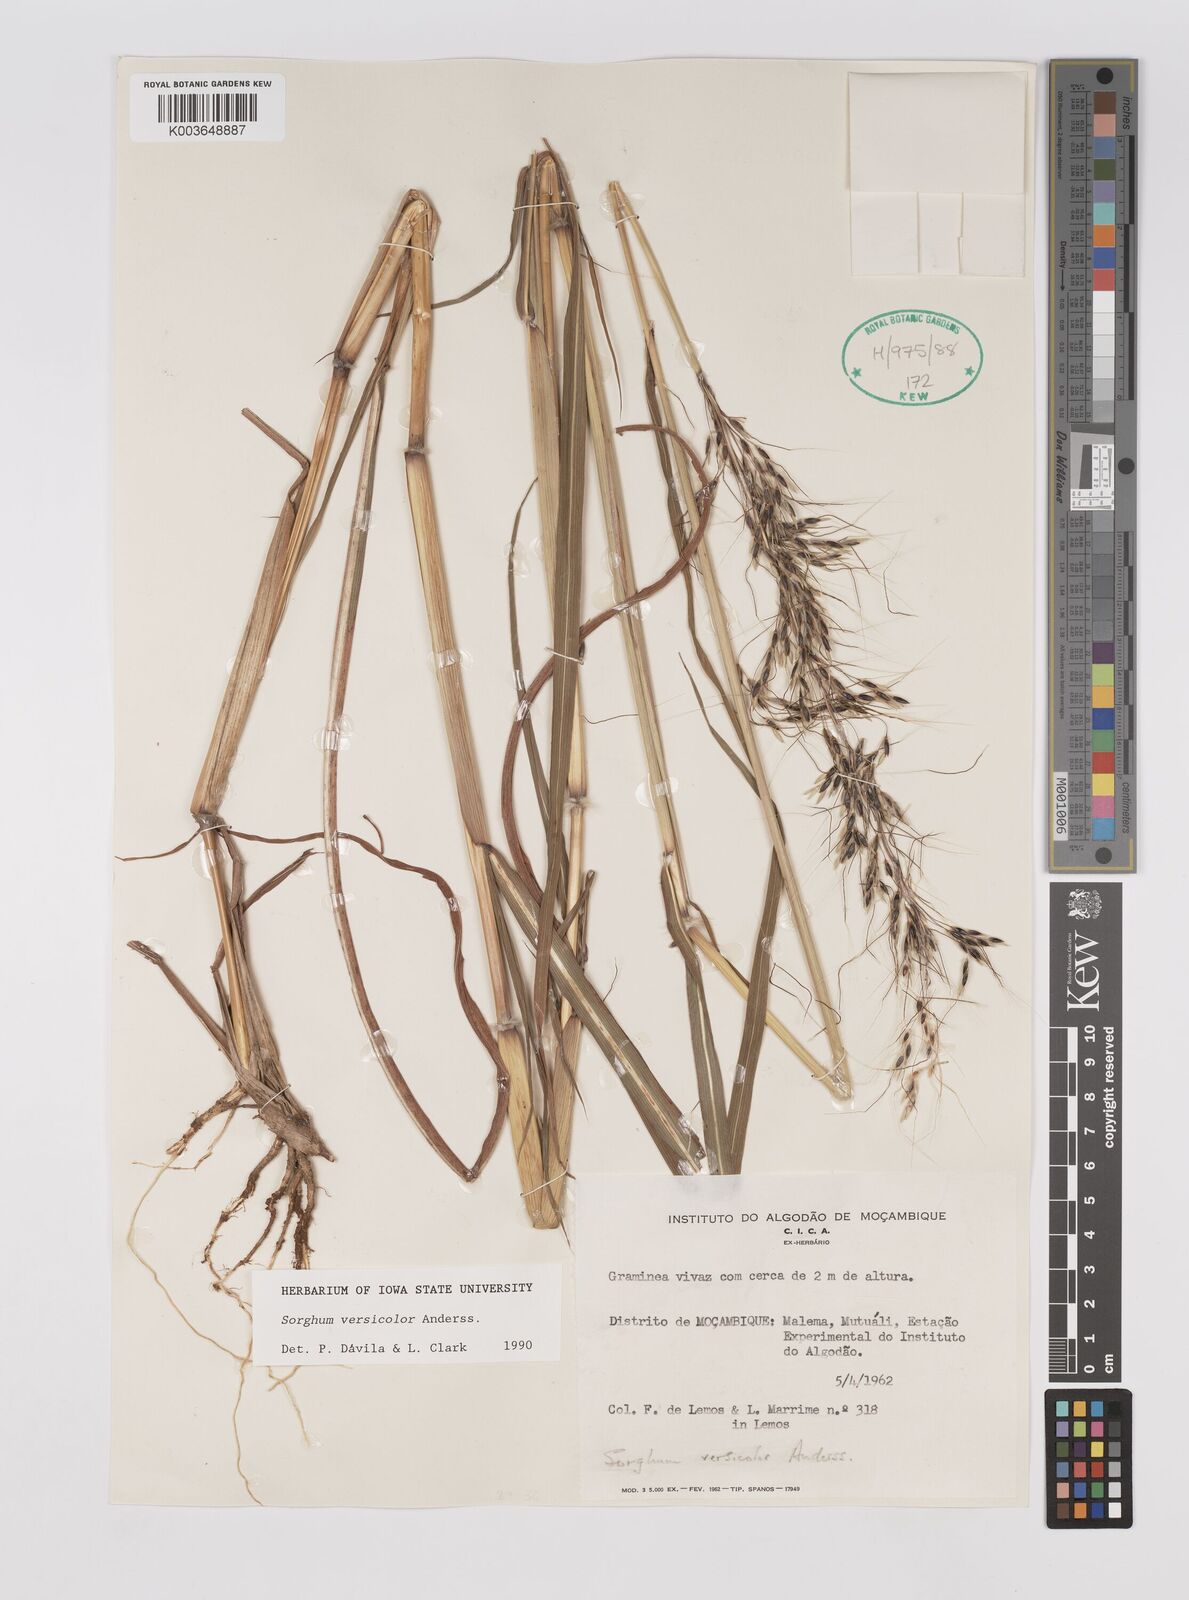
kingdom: Plantae
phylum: Tracheophyta
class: Liliopsida
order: Poales
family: Poaceae
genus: Sarga
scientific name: Sarga versicolor
